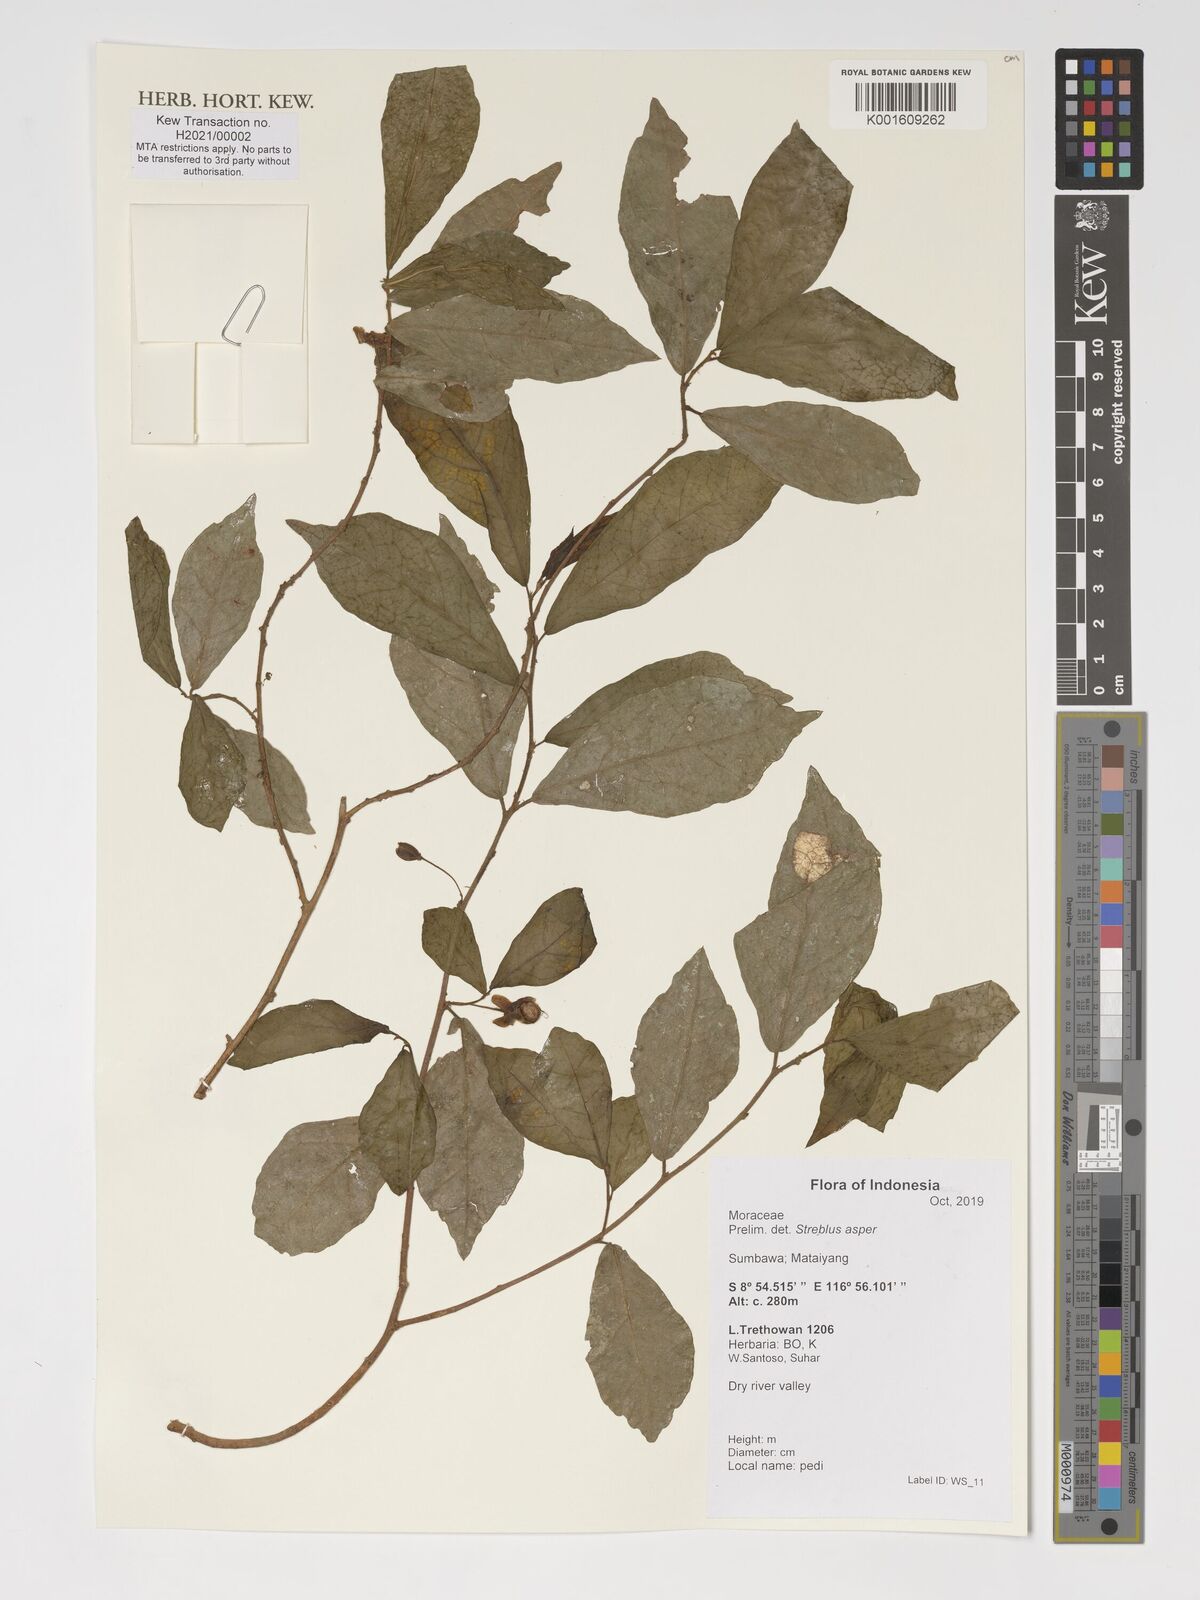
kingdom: Plantae
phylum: Tracheophyta
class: Magnoliopsida
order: Rosales
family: Moraceae
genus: Streblus
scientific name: Streblus asper
